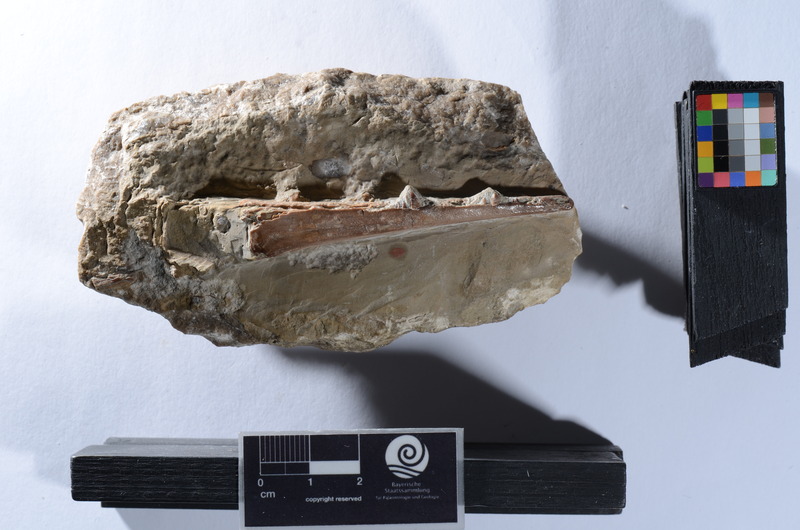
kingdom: Animalia
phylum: Chordata
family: Saurichthyidae
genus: Saurichthys
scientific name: Saurichthys apicalis
